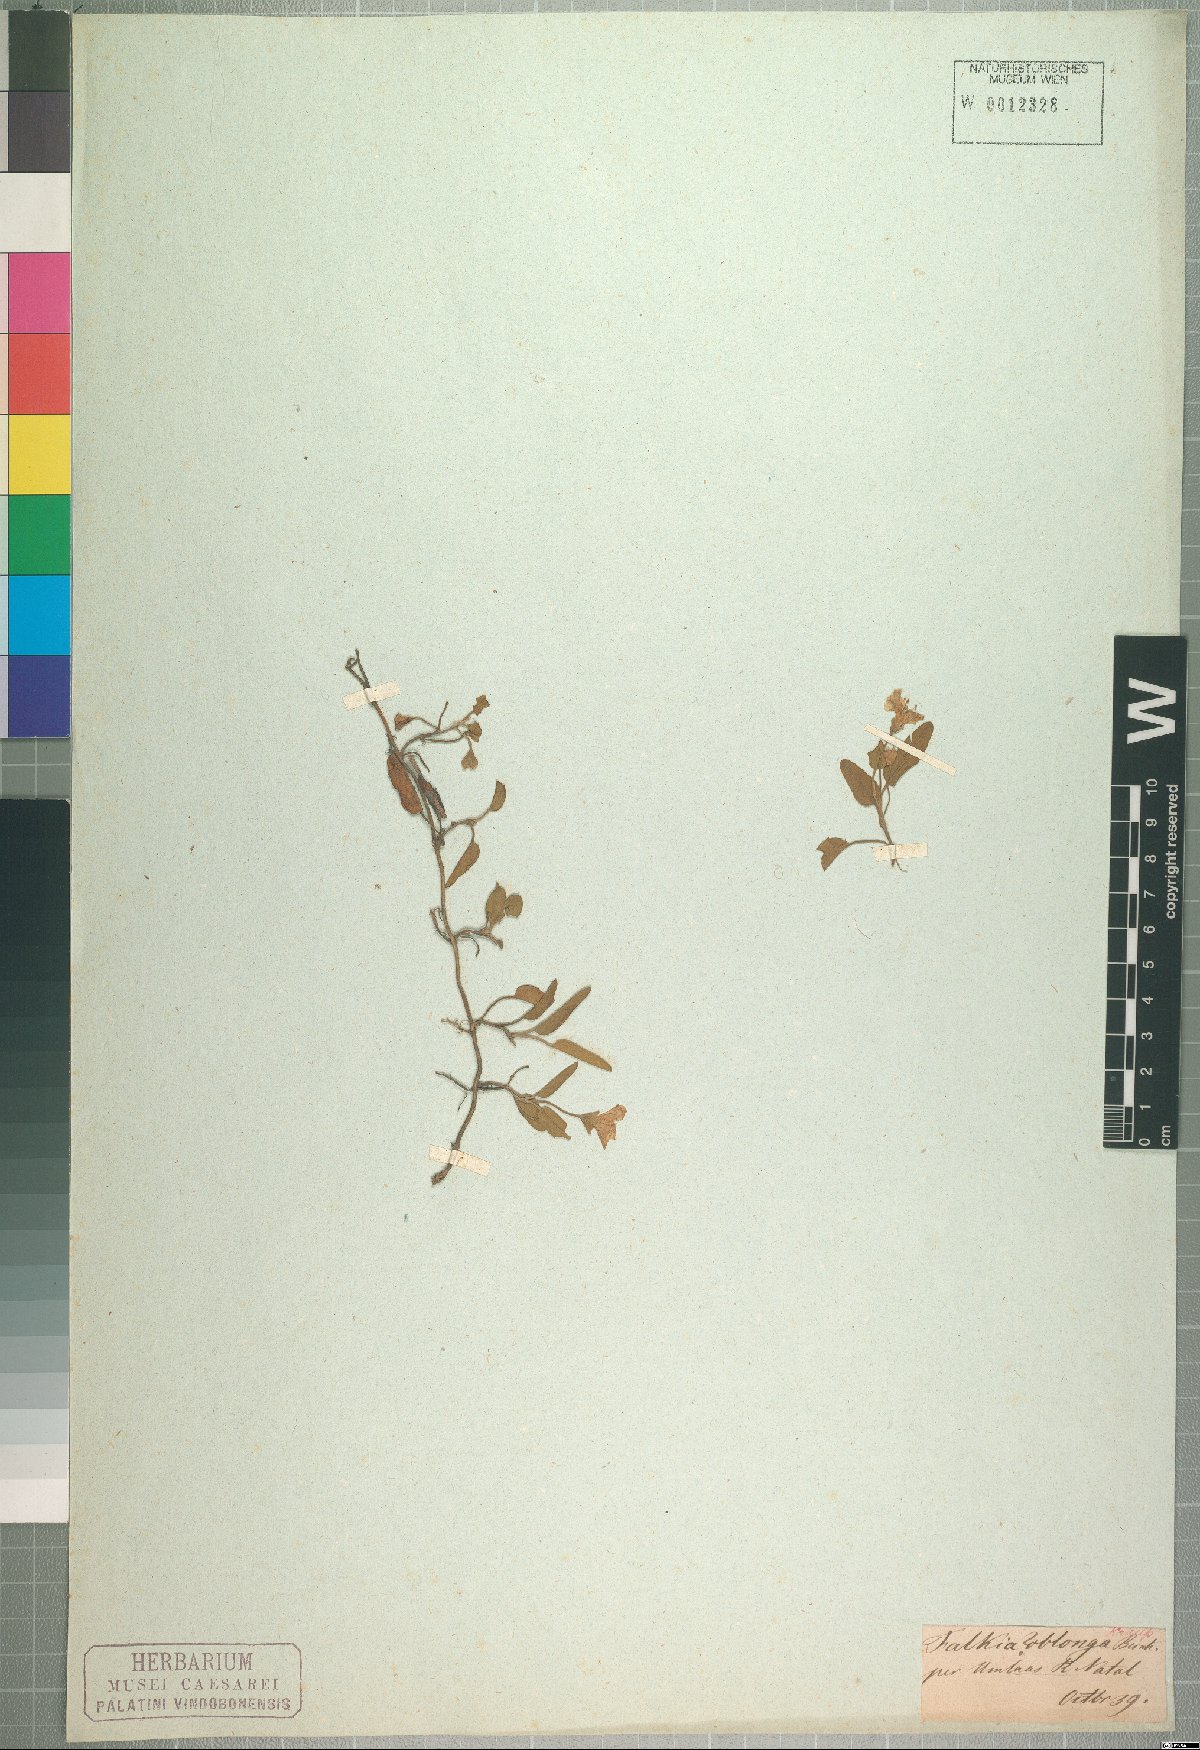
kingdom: Plantae
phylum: Tracheophyta
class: Magnoliopsida
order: Solanales
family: Convolvulaceae
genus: Falkia
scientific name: Falkia oblonga
